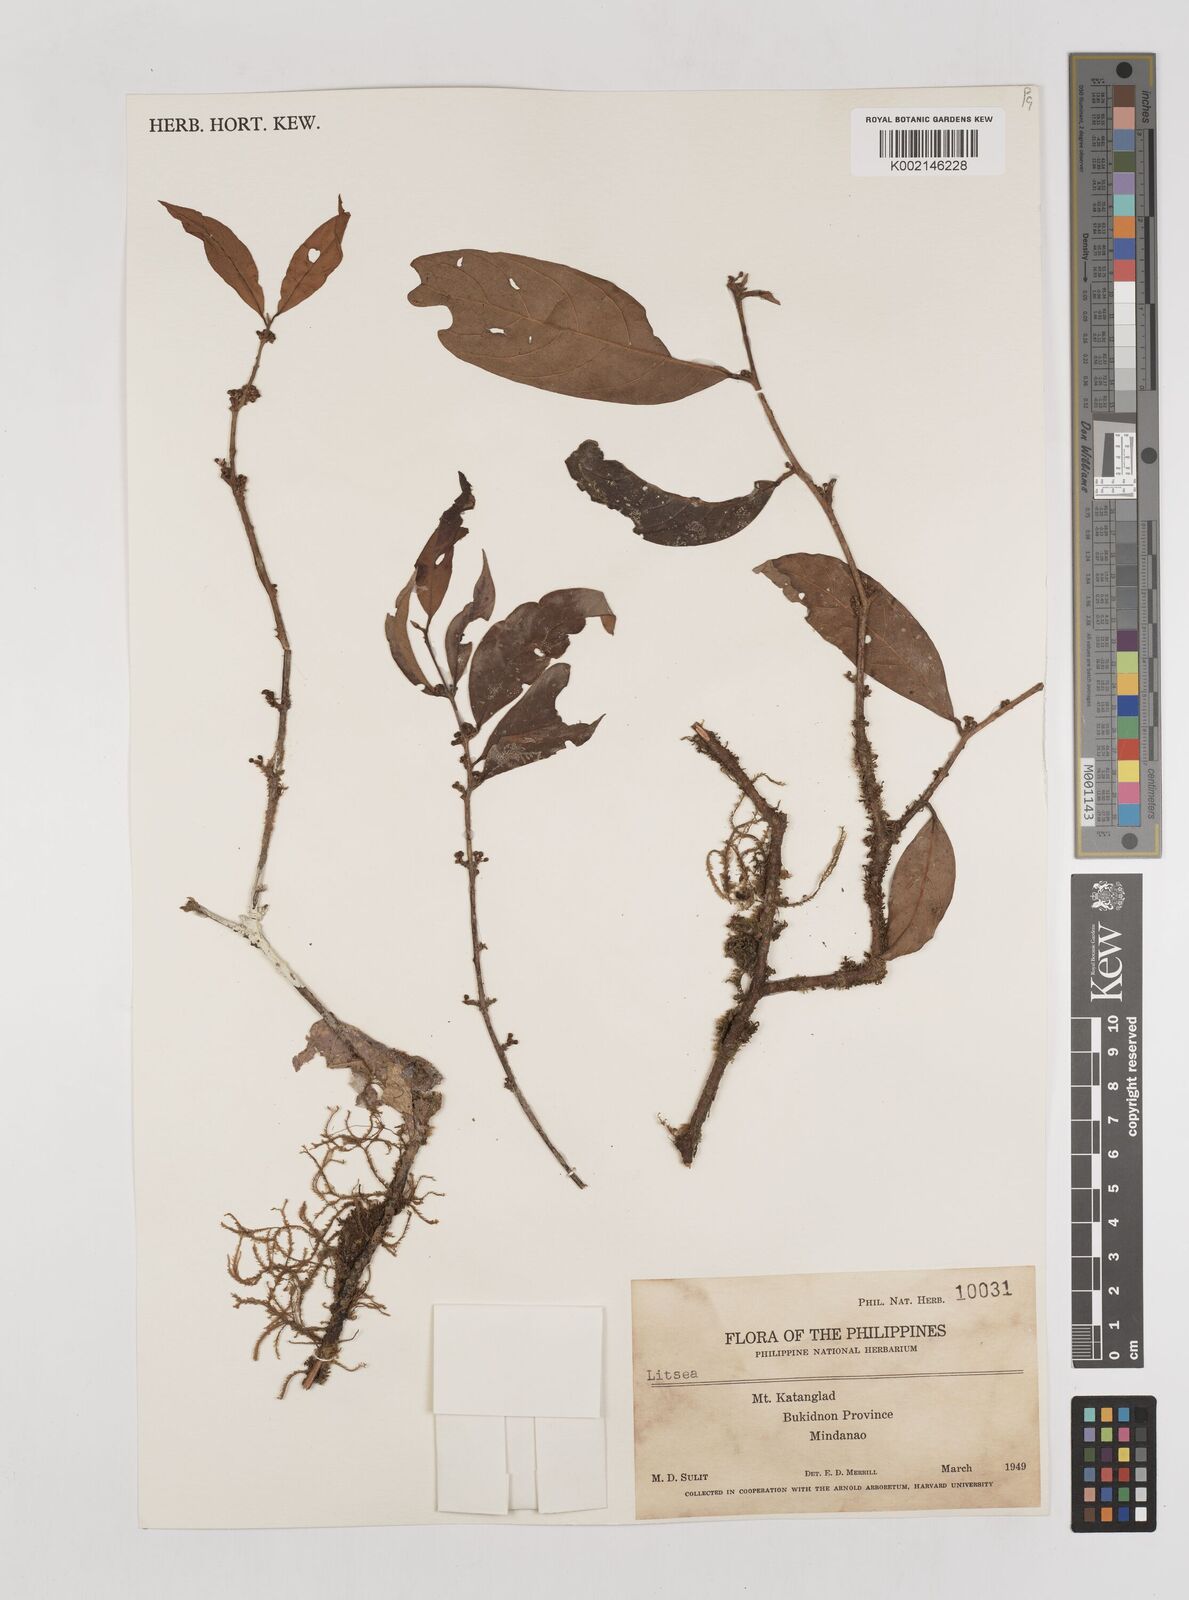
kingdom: Plantae
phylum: Tracheophyta
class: Magnoliopsida
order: Laurales
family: Lauraceae
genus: Litsea
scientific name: Litsea
